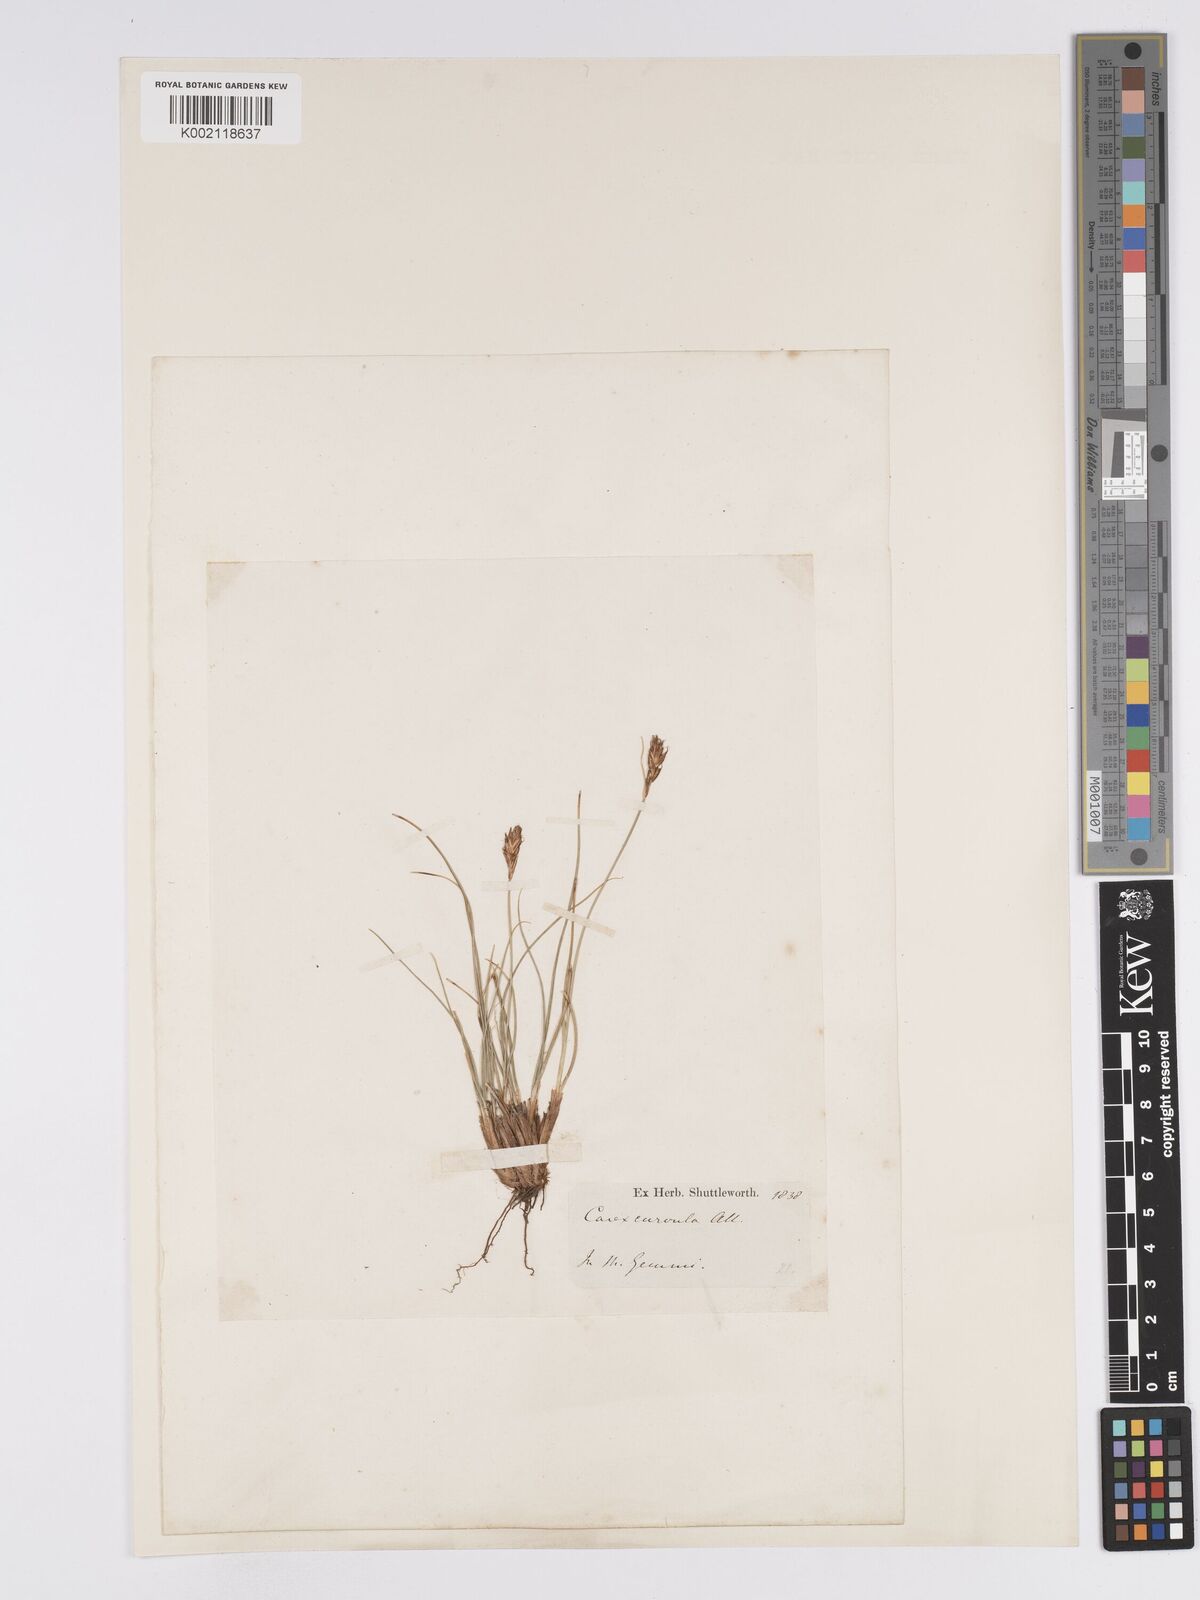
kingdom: Plantae
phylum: Tracheophyta
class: Liliopsida
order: Poales
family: Cyperaceae
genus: Carex
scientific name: Carex curvula
